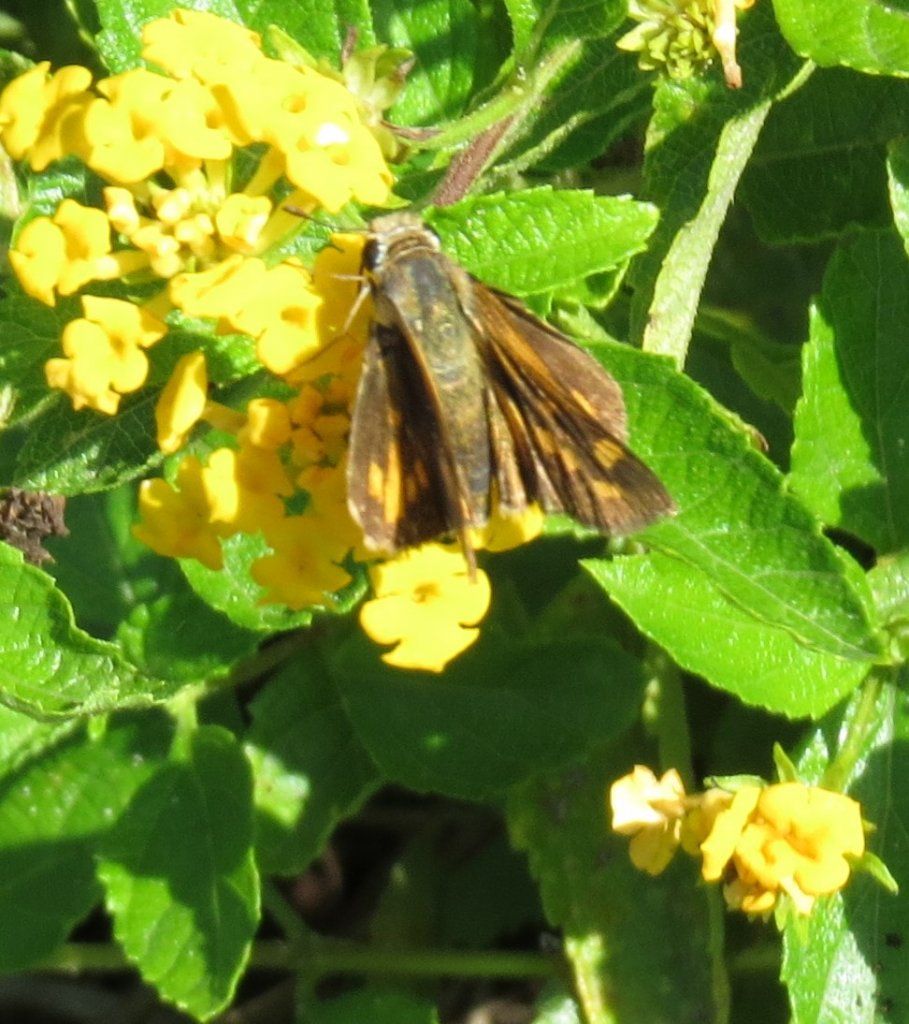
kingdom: Animalia
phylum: Arthropoda
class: Insecta
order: Lepidoptera
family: Hesperiidae
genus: Hylephila
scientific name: Hylephila phyleus
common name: Fiery Skipper
